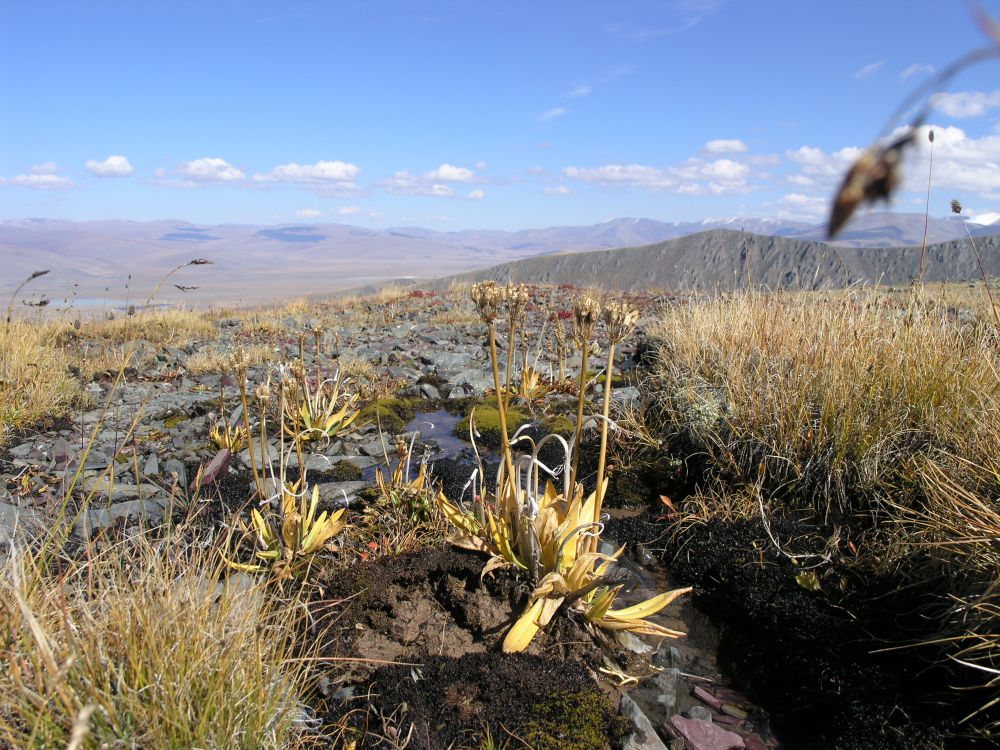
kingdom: Plantae
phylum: Tracheophyta
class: Magnoliopsida
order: Ericales
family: Primulaceae
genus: Primula
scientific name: Primula nivalis
